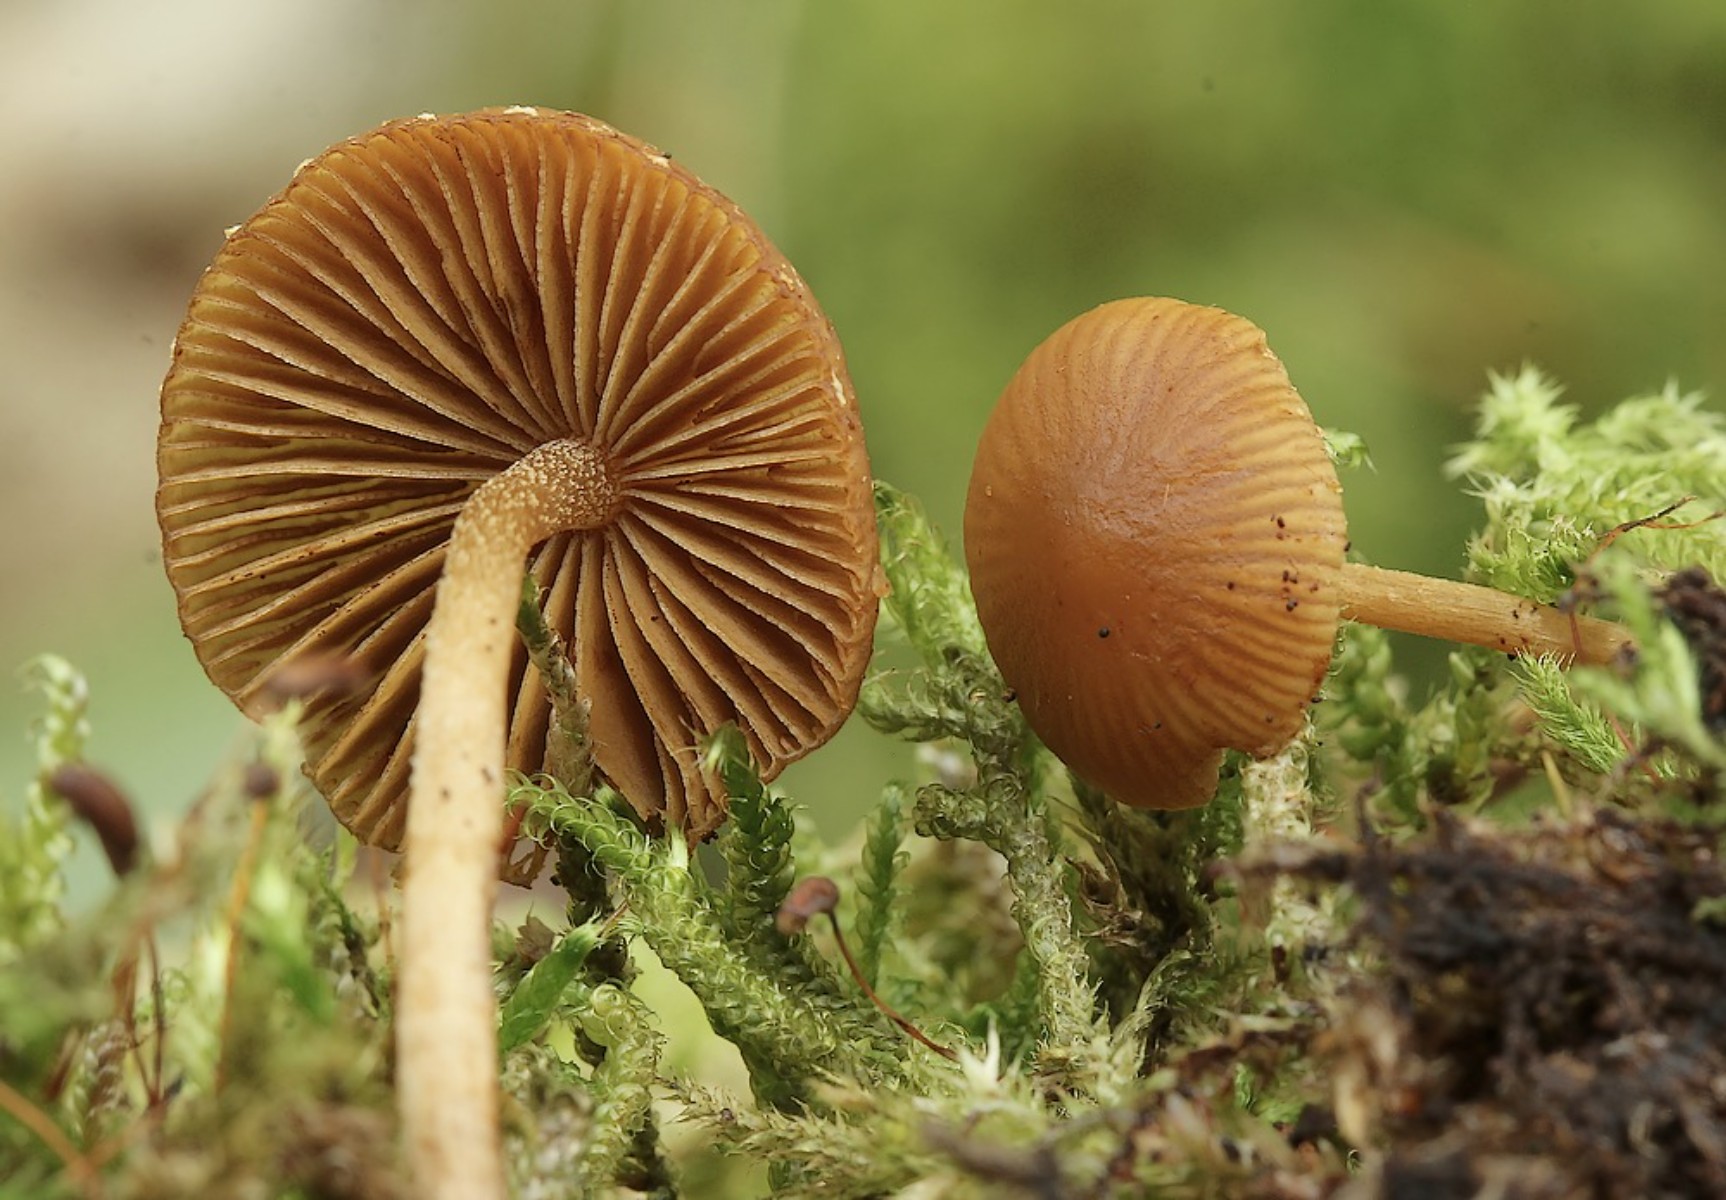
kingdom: Fungi
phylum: Basidiomycota
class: Agaricomycetes
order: Agaricales
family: Hymenogastraceae
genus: Galerina
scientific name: Galerina
